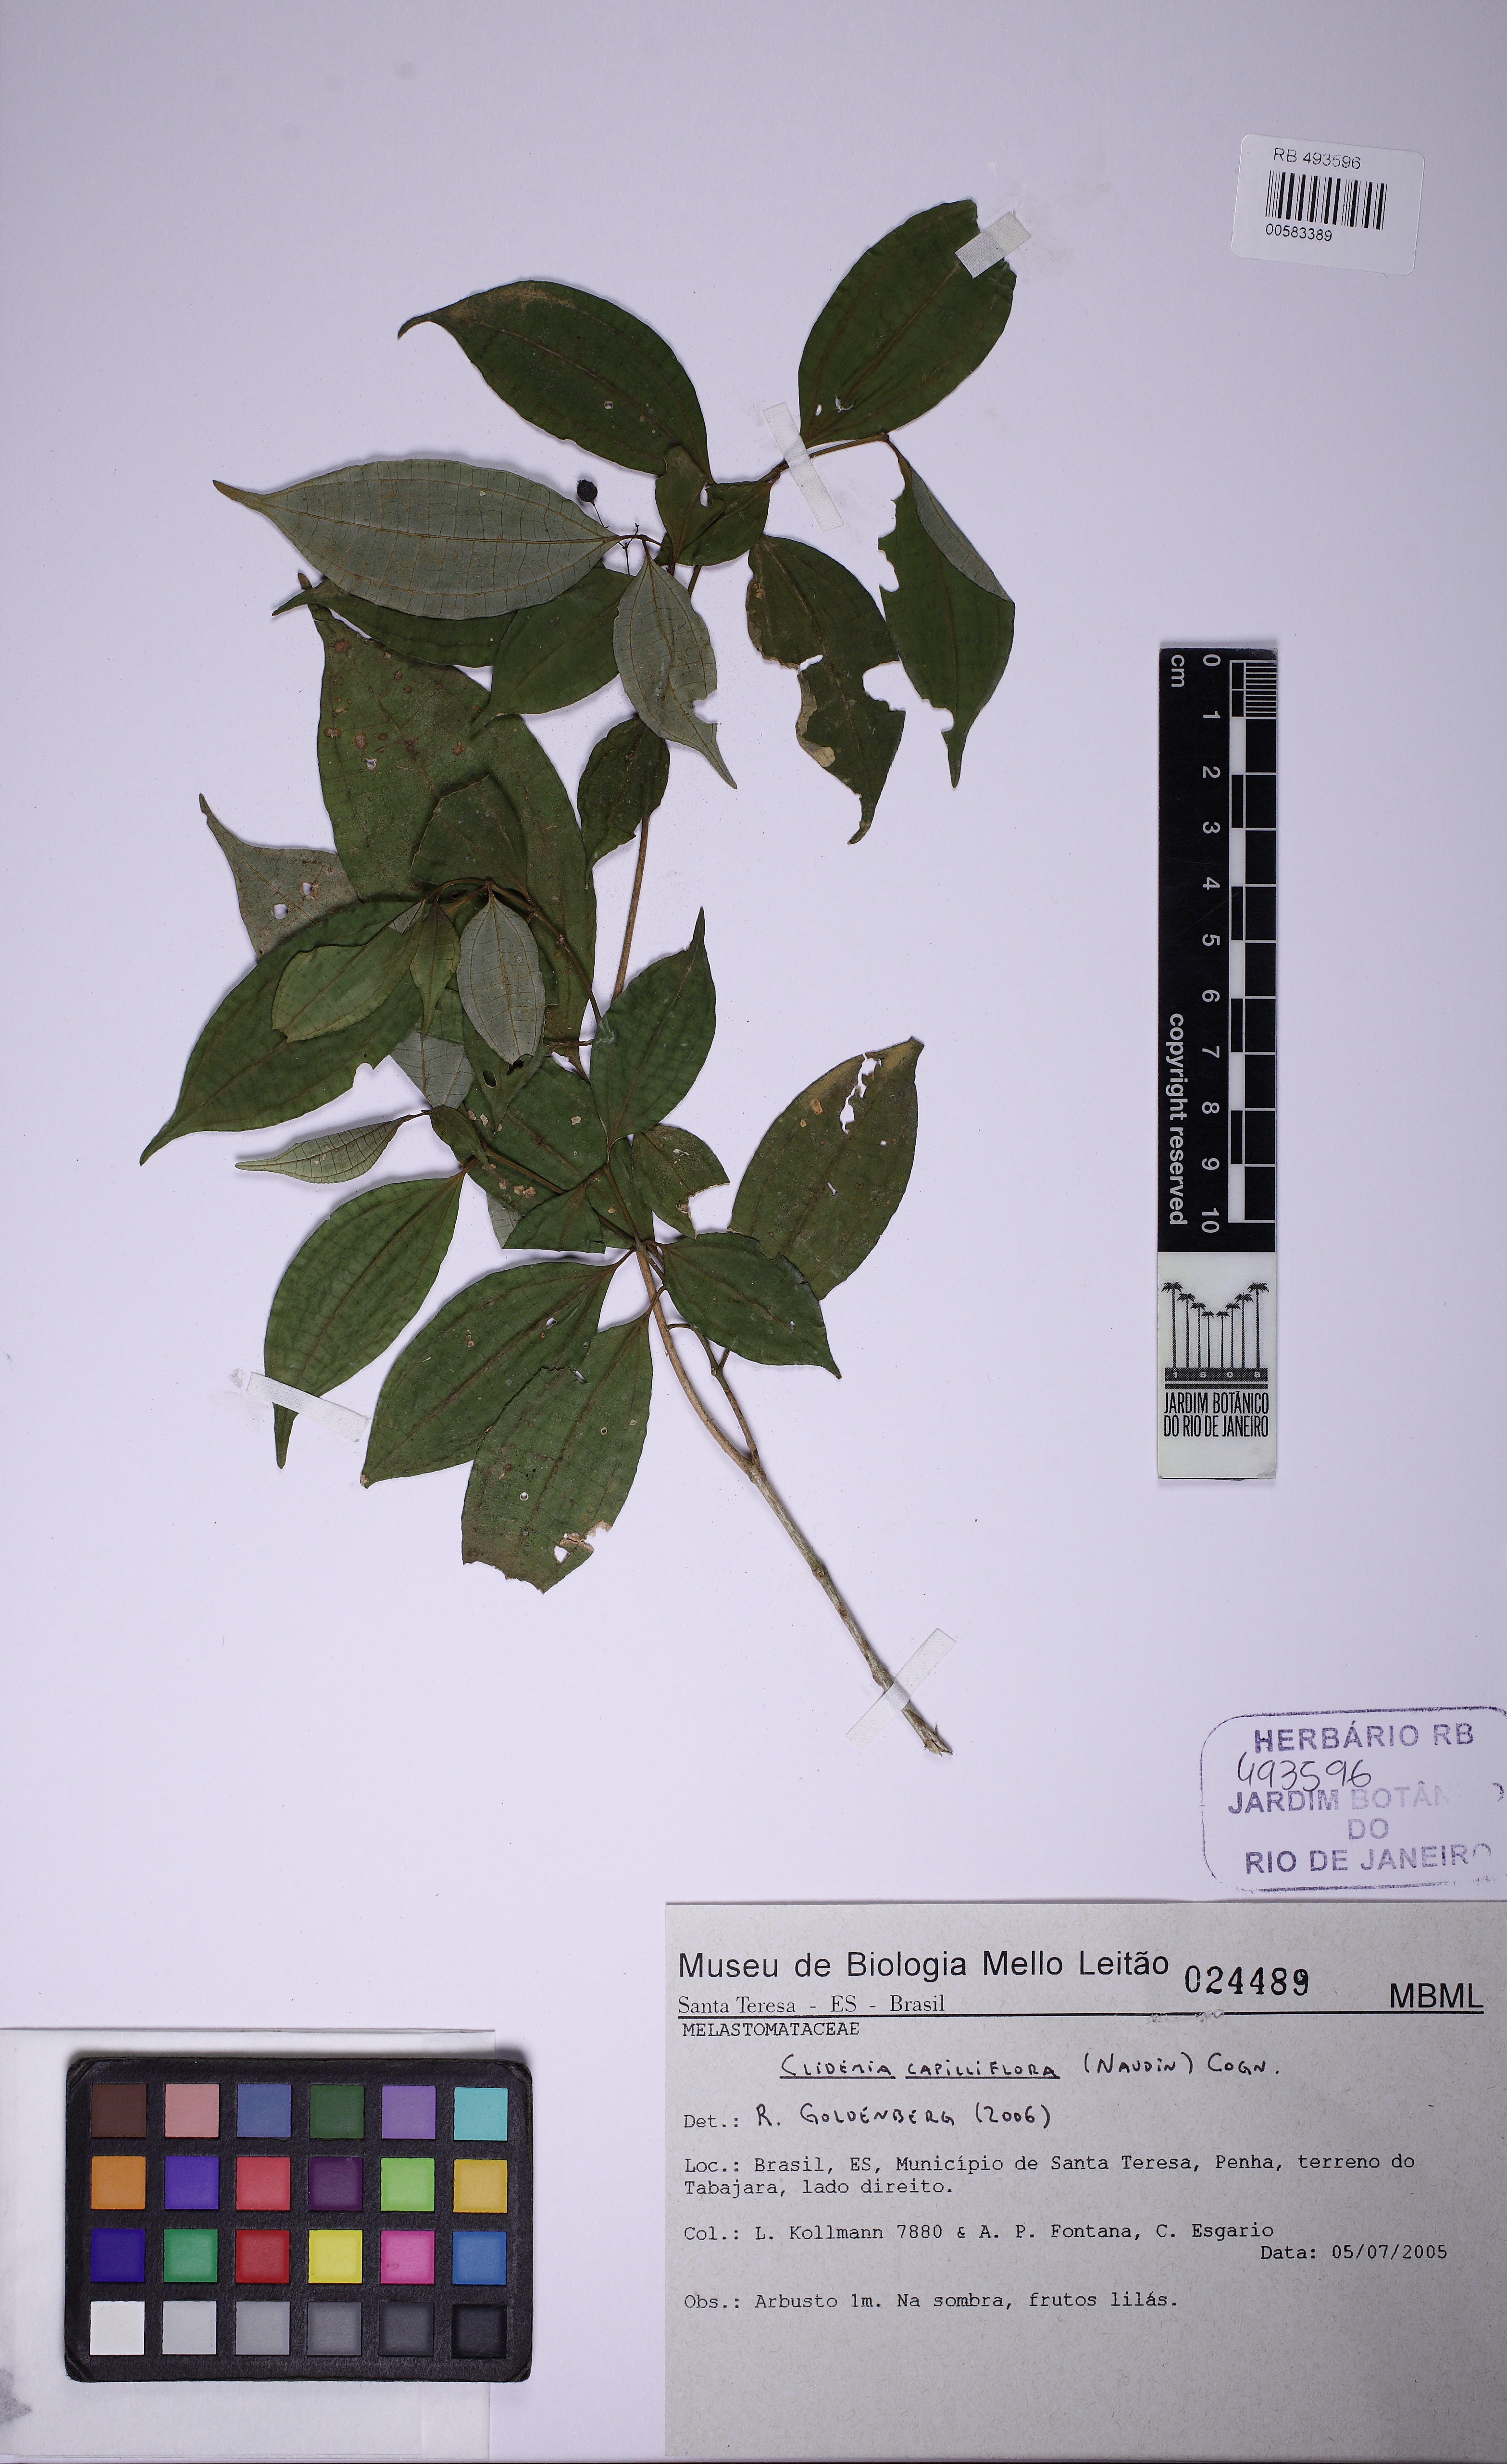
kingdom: Plantae
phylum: Tracheophyta
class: Magnoliopsida
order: Myrtales
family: Melastomataceae
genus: Miconia
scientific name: Miconia capilliflora
